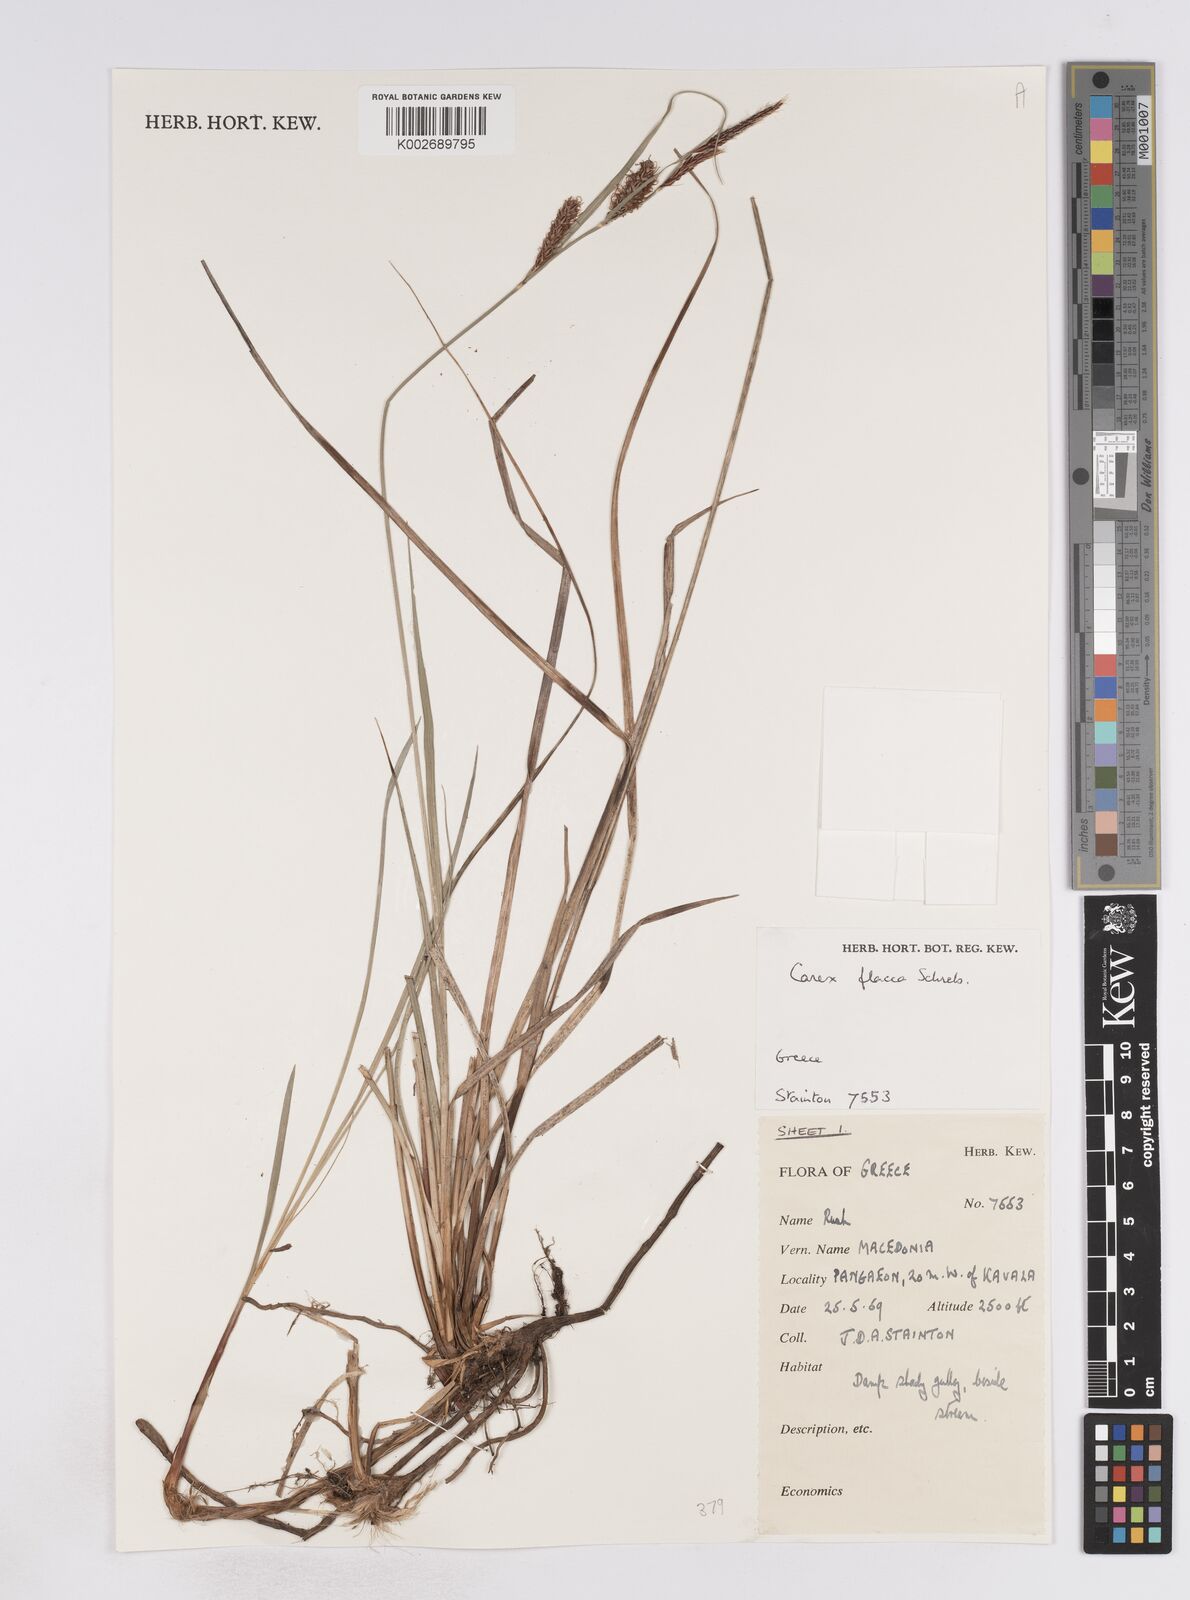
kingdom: Plantae
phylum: Tracheophyta
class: Liliopsida
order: Poales
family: Cyperaceae
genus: Carex
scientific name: Carex flacca
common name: Glaucous sedge
